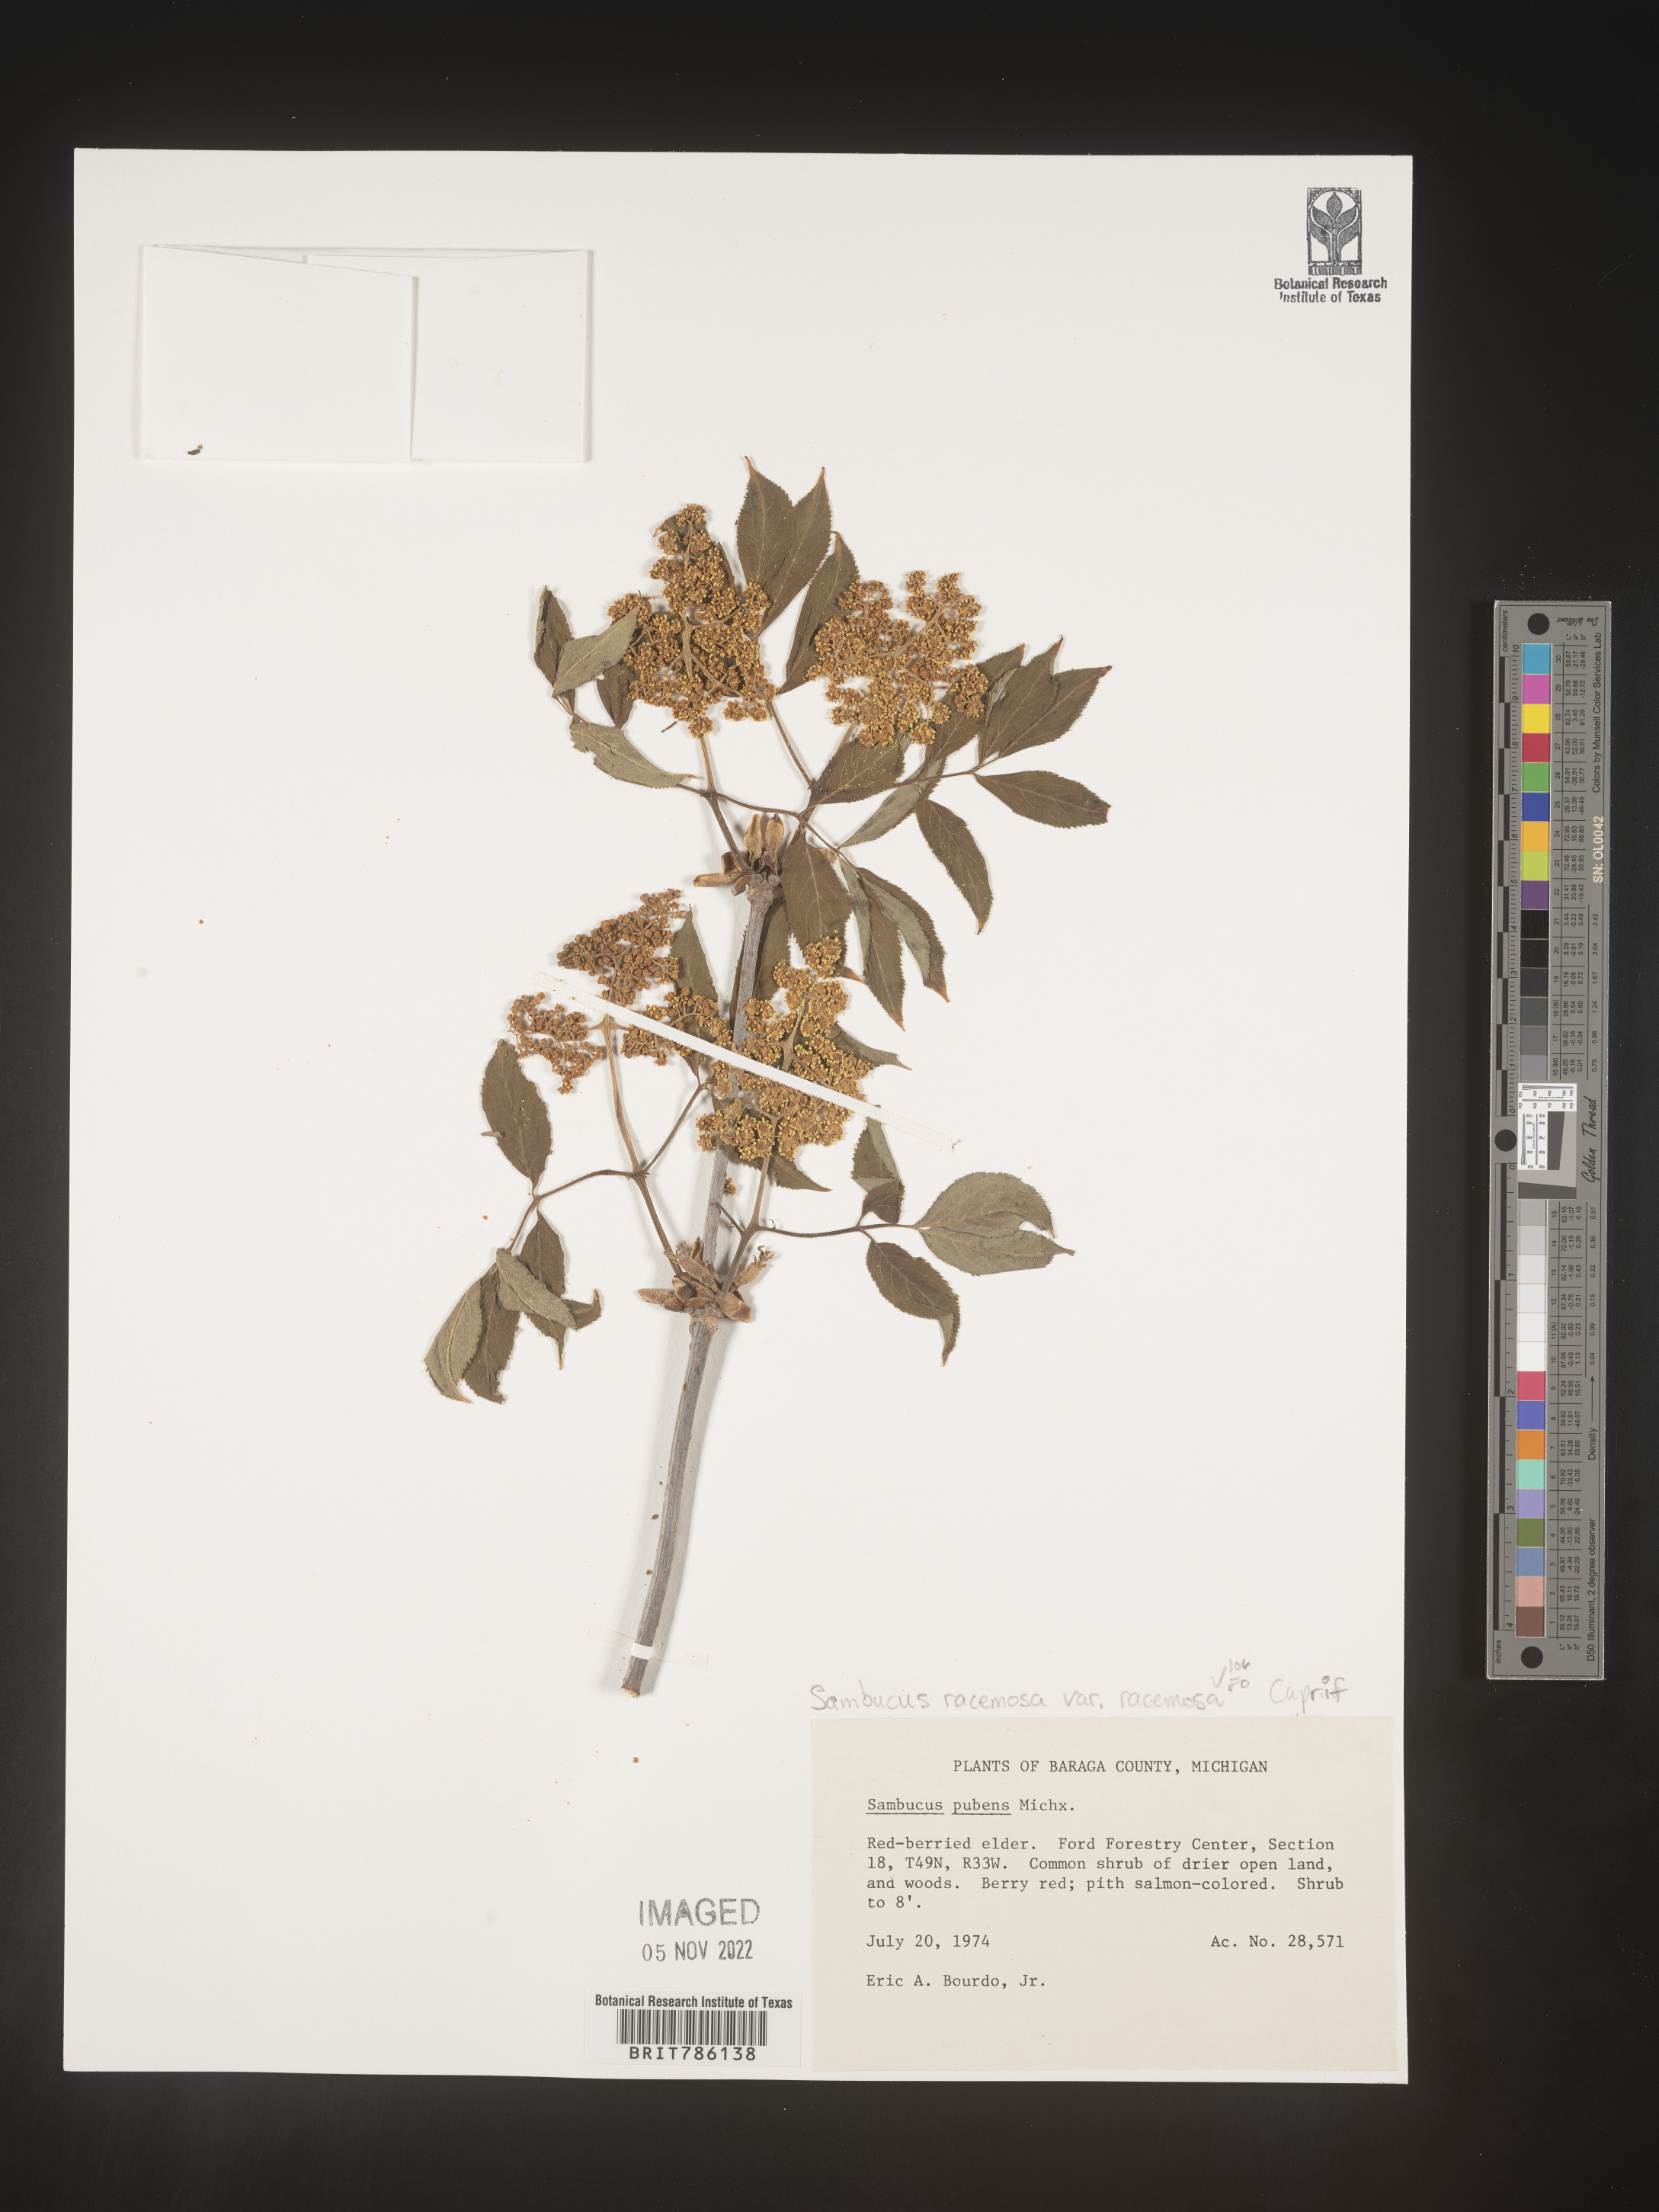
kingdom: Plantae
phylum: Tracheophyta
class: Magnoliopsida
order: Dipsacales
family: Viburnaceae
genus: Sambucus
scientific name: Sambucus
